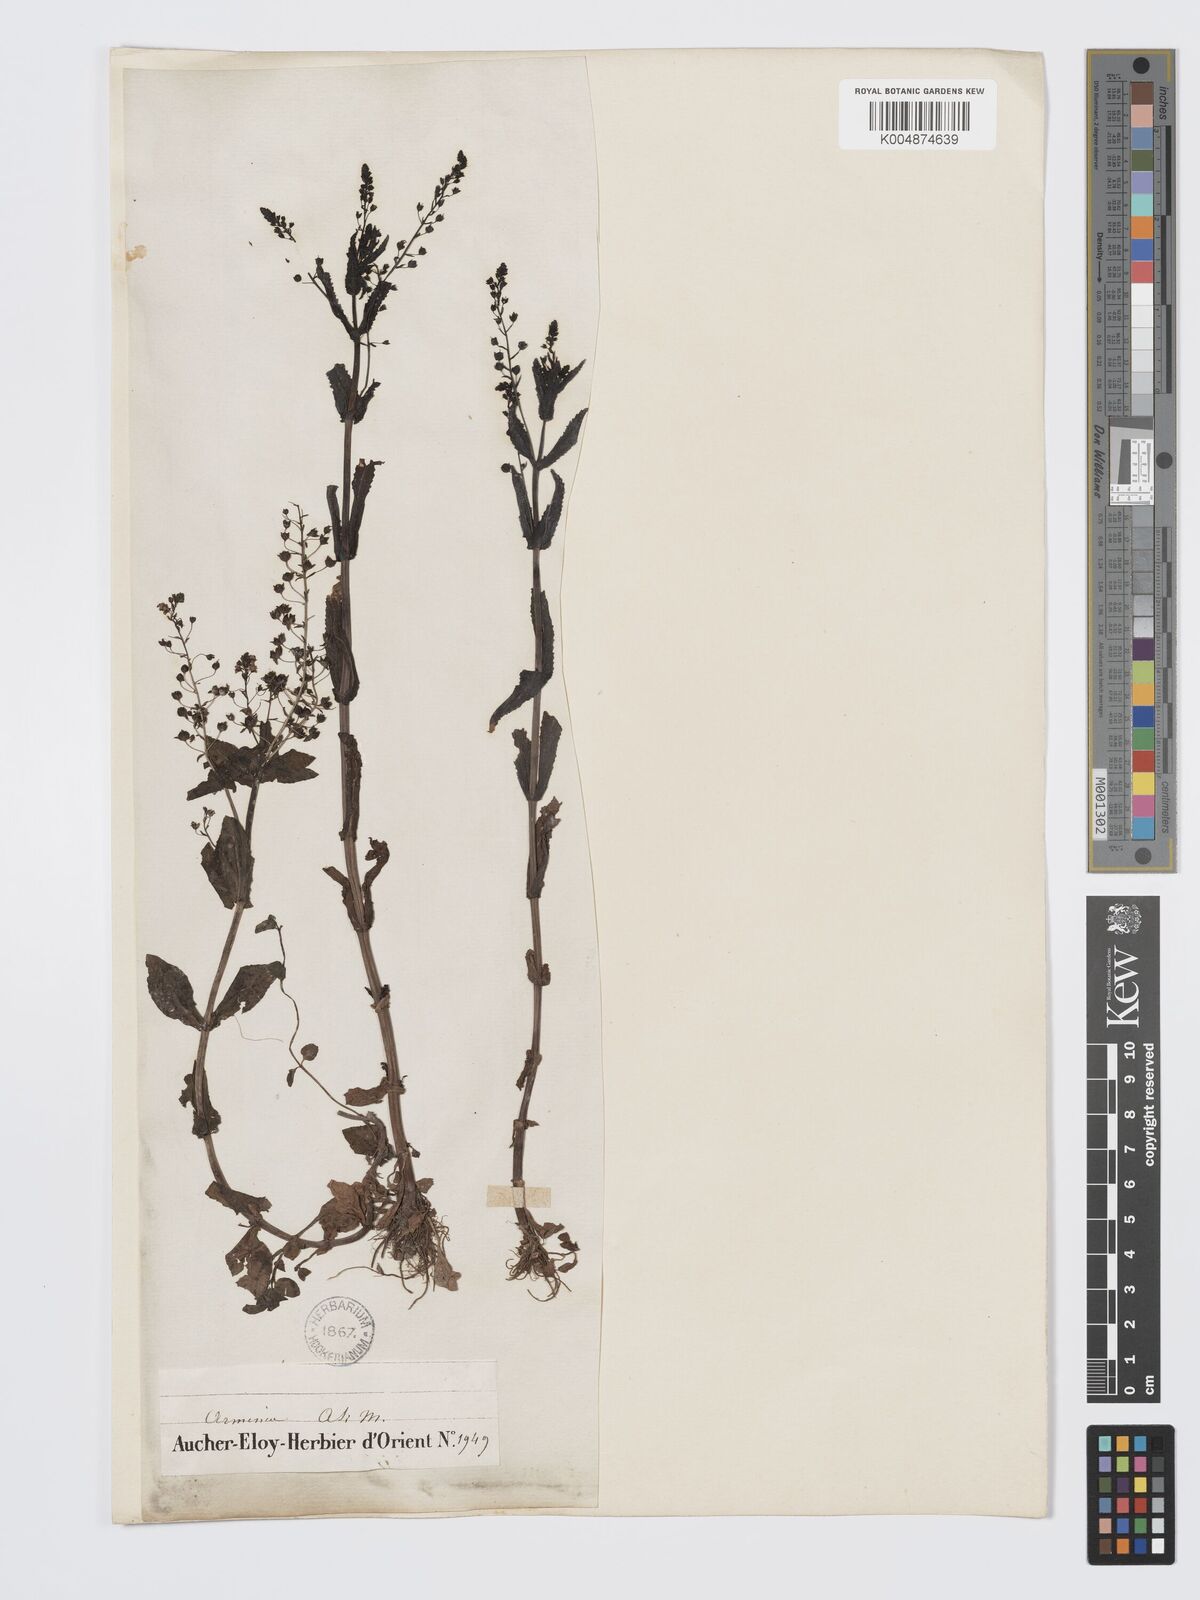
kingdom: Plantae
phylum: Tracheophyta
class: Magnoliopsida
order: Lamiales
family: Plantaginaceae
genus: Veronica
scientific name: Veronica
